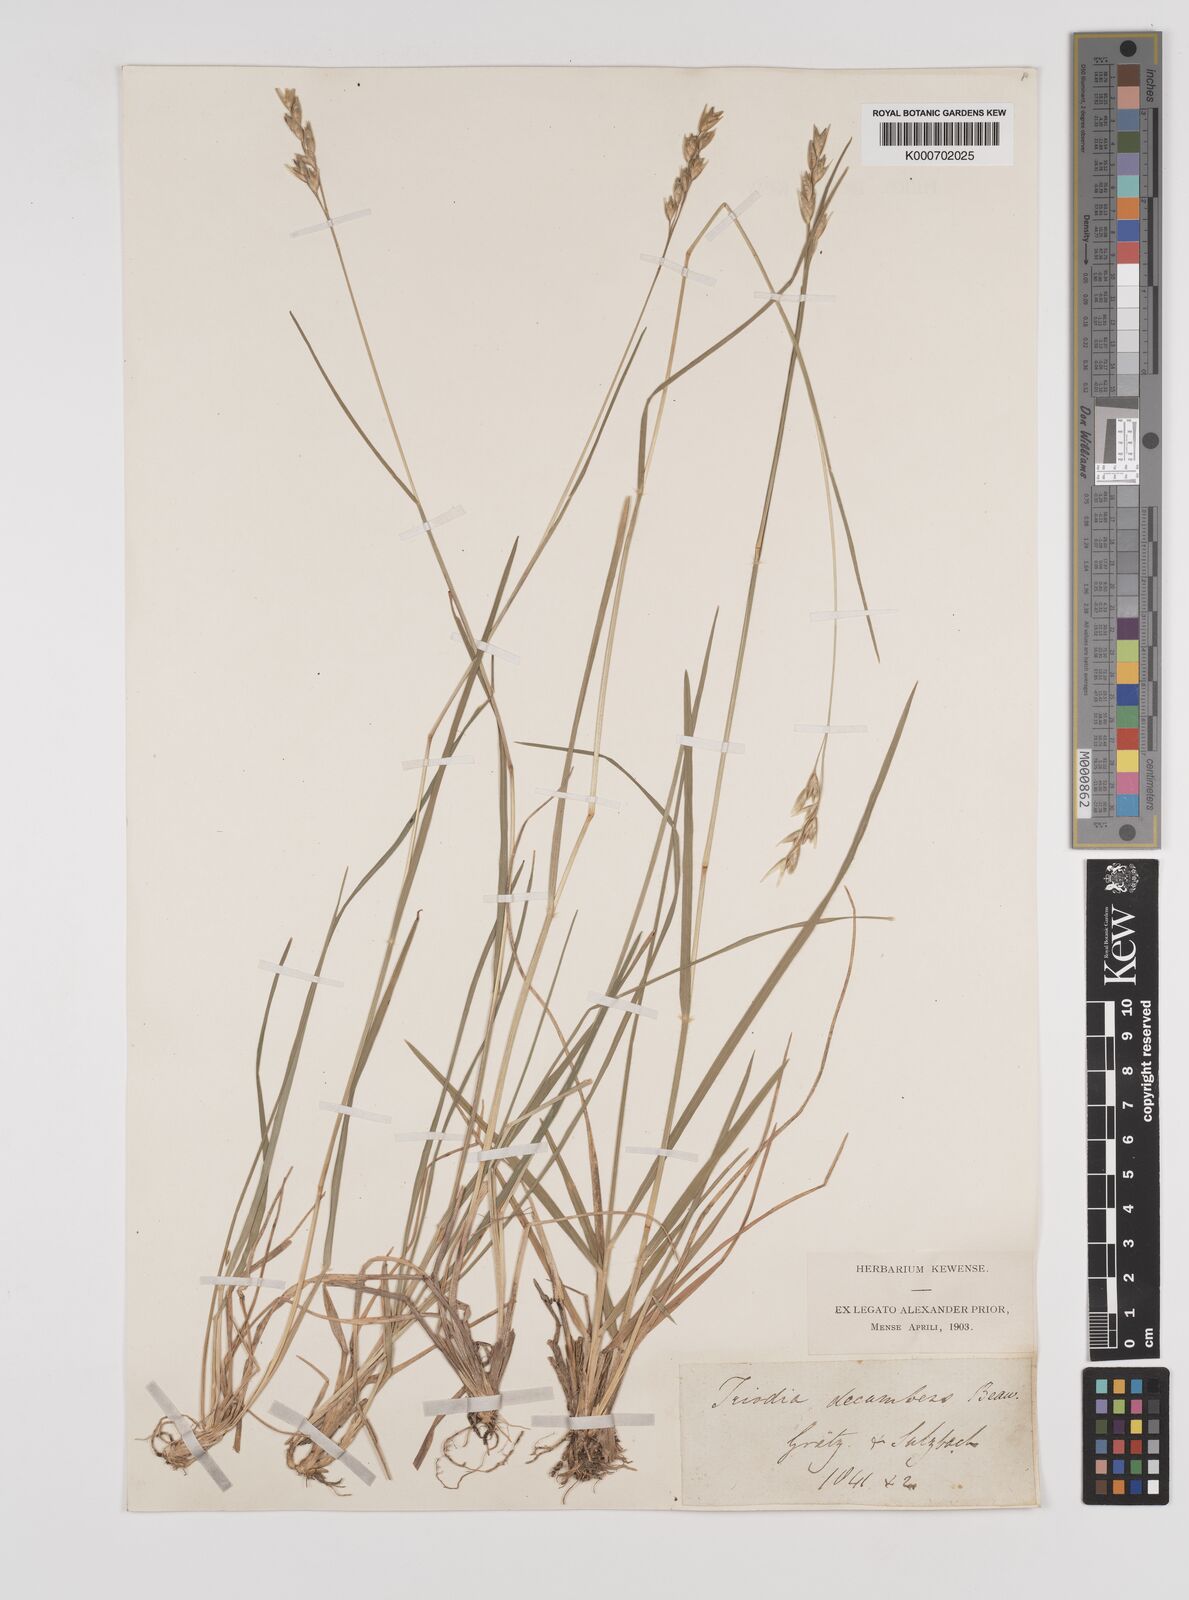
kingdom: Plantae
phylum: Tracheophyta
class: Liliopsida
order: Poales
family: Poaceae
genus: Danthonia
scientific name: Danthonia decumbens
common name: Common heathgrass
